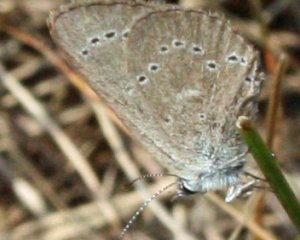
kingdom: Animalia
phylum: Arthropoda
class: Insecta
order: Lepidoptera
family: Lycaenidae
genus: Glaucopsyche
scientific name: Glaucopsyche lygdamus
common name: Silvery Blue
